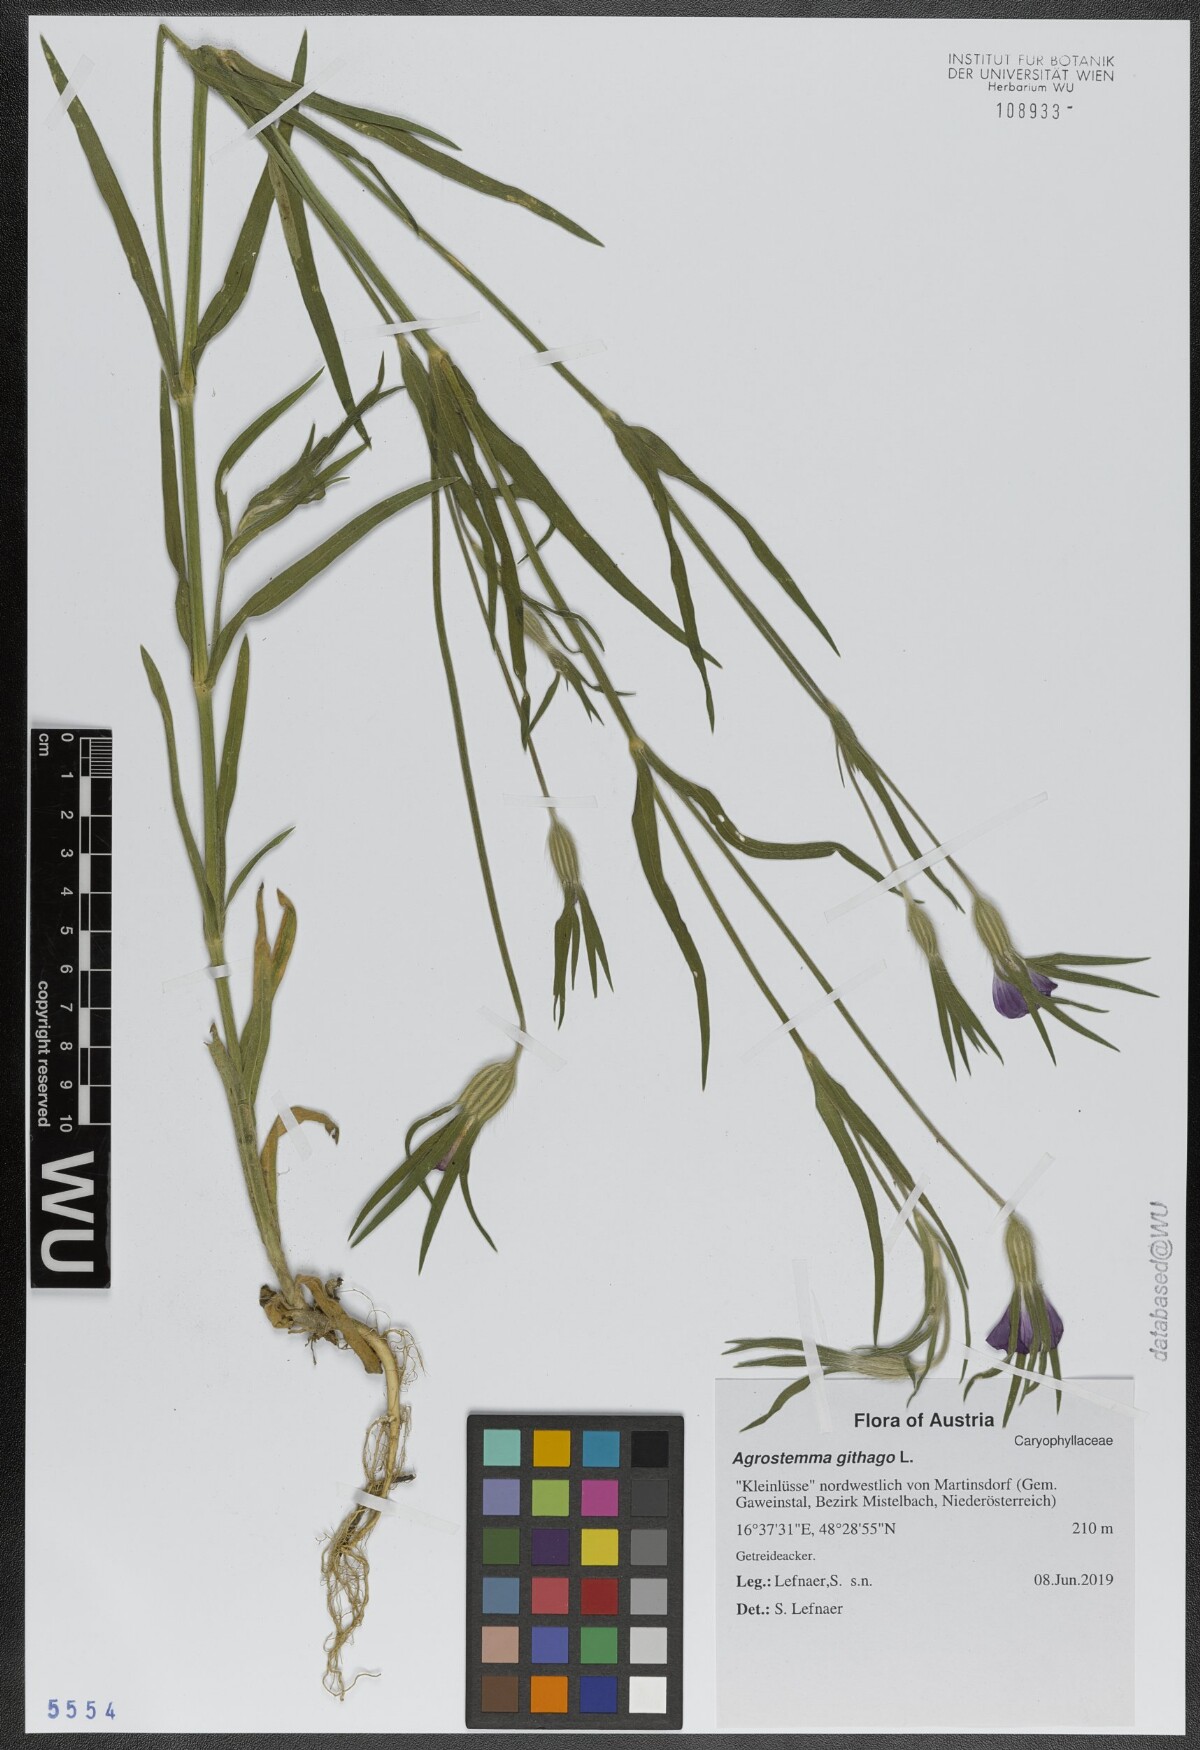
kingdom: Plantae
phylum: Tracheophyta
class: Magnoliopsida
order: Caryophyllales
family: Caryophyllaceae
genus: Agrostemma
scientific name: Agrostemma githago
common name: Common corncockle
